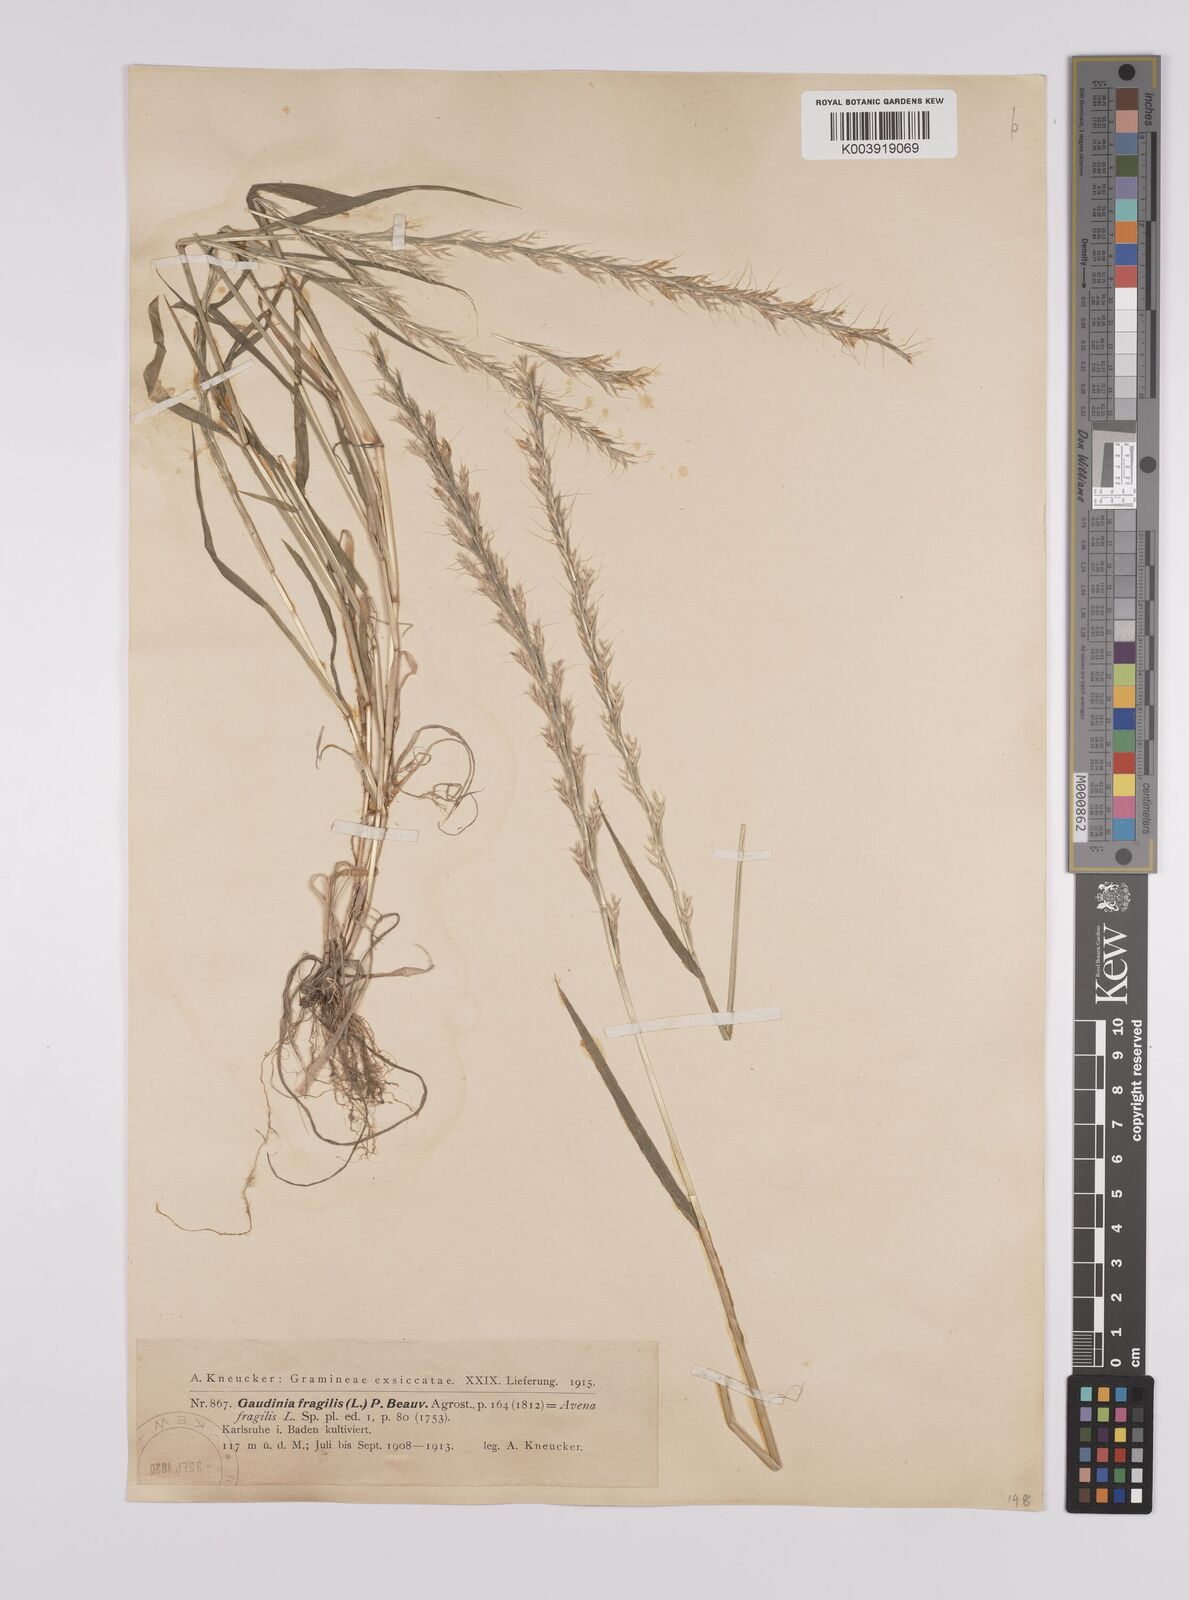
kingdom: Plantae
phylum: Tracheophyta
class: Liliopsida
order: Poales
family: Poaceae
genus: Gaudinia
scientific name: Gaudinia fragilis
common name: French oat-grass
